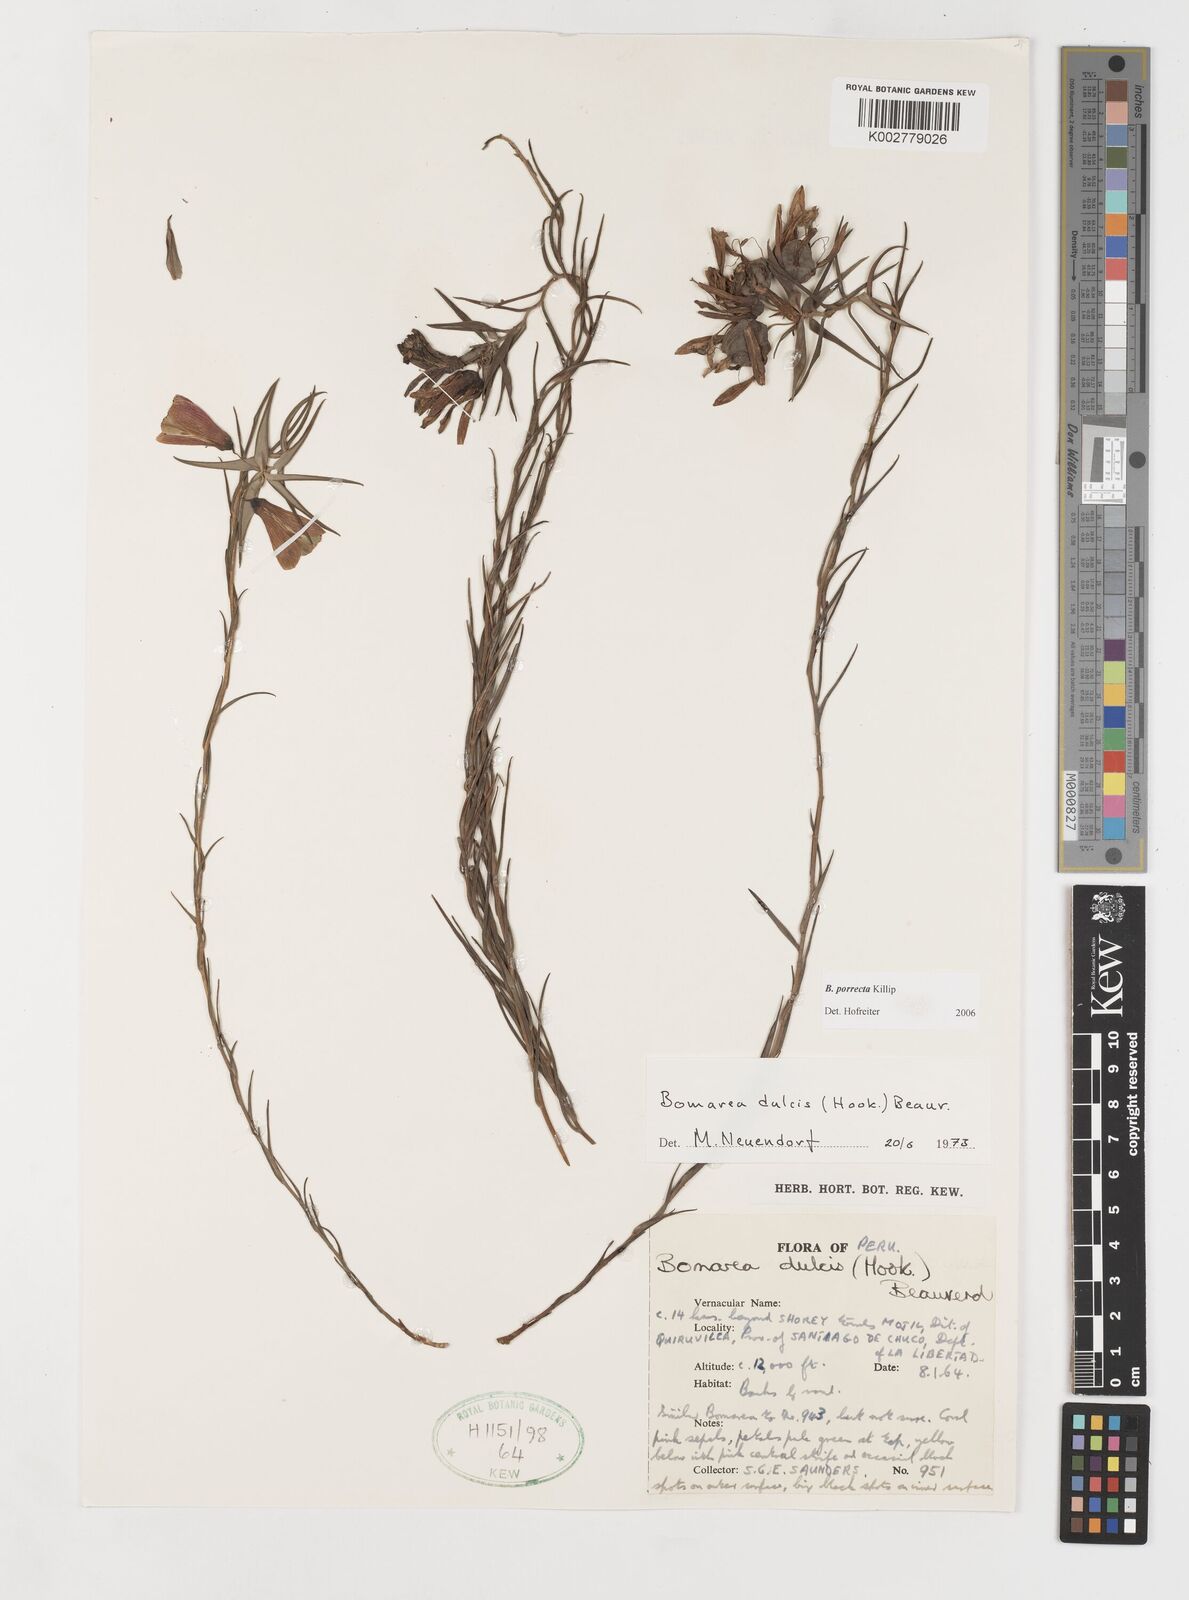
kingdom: Plantae
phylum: Tracheophyta
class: Liliopsida
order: Liliales
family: Alstroemeriaceae
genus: Bomarea
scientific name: Bomarea porrecta
